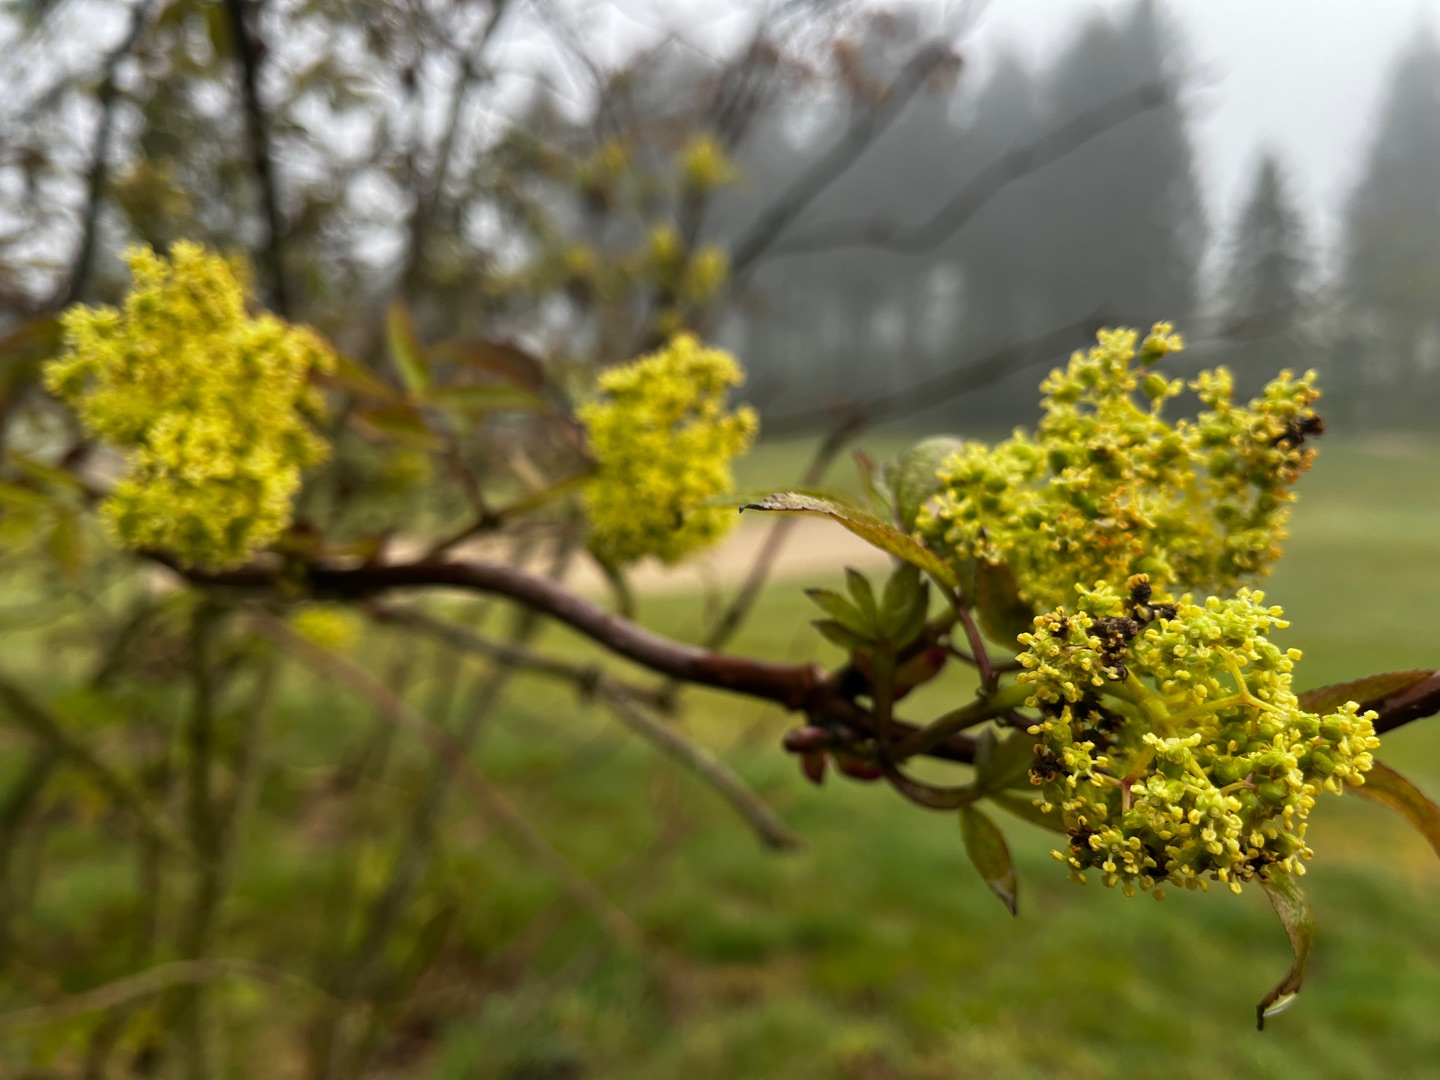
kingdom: Plantae
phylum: Tracheophyta
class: Magnoliopsida
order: Dipsacales
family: Viburnaceae
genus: Sambucus
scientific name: Sambucus racemosa
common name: Drue-hyld
